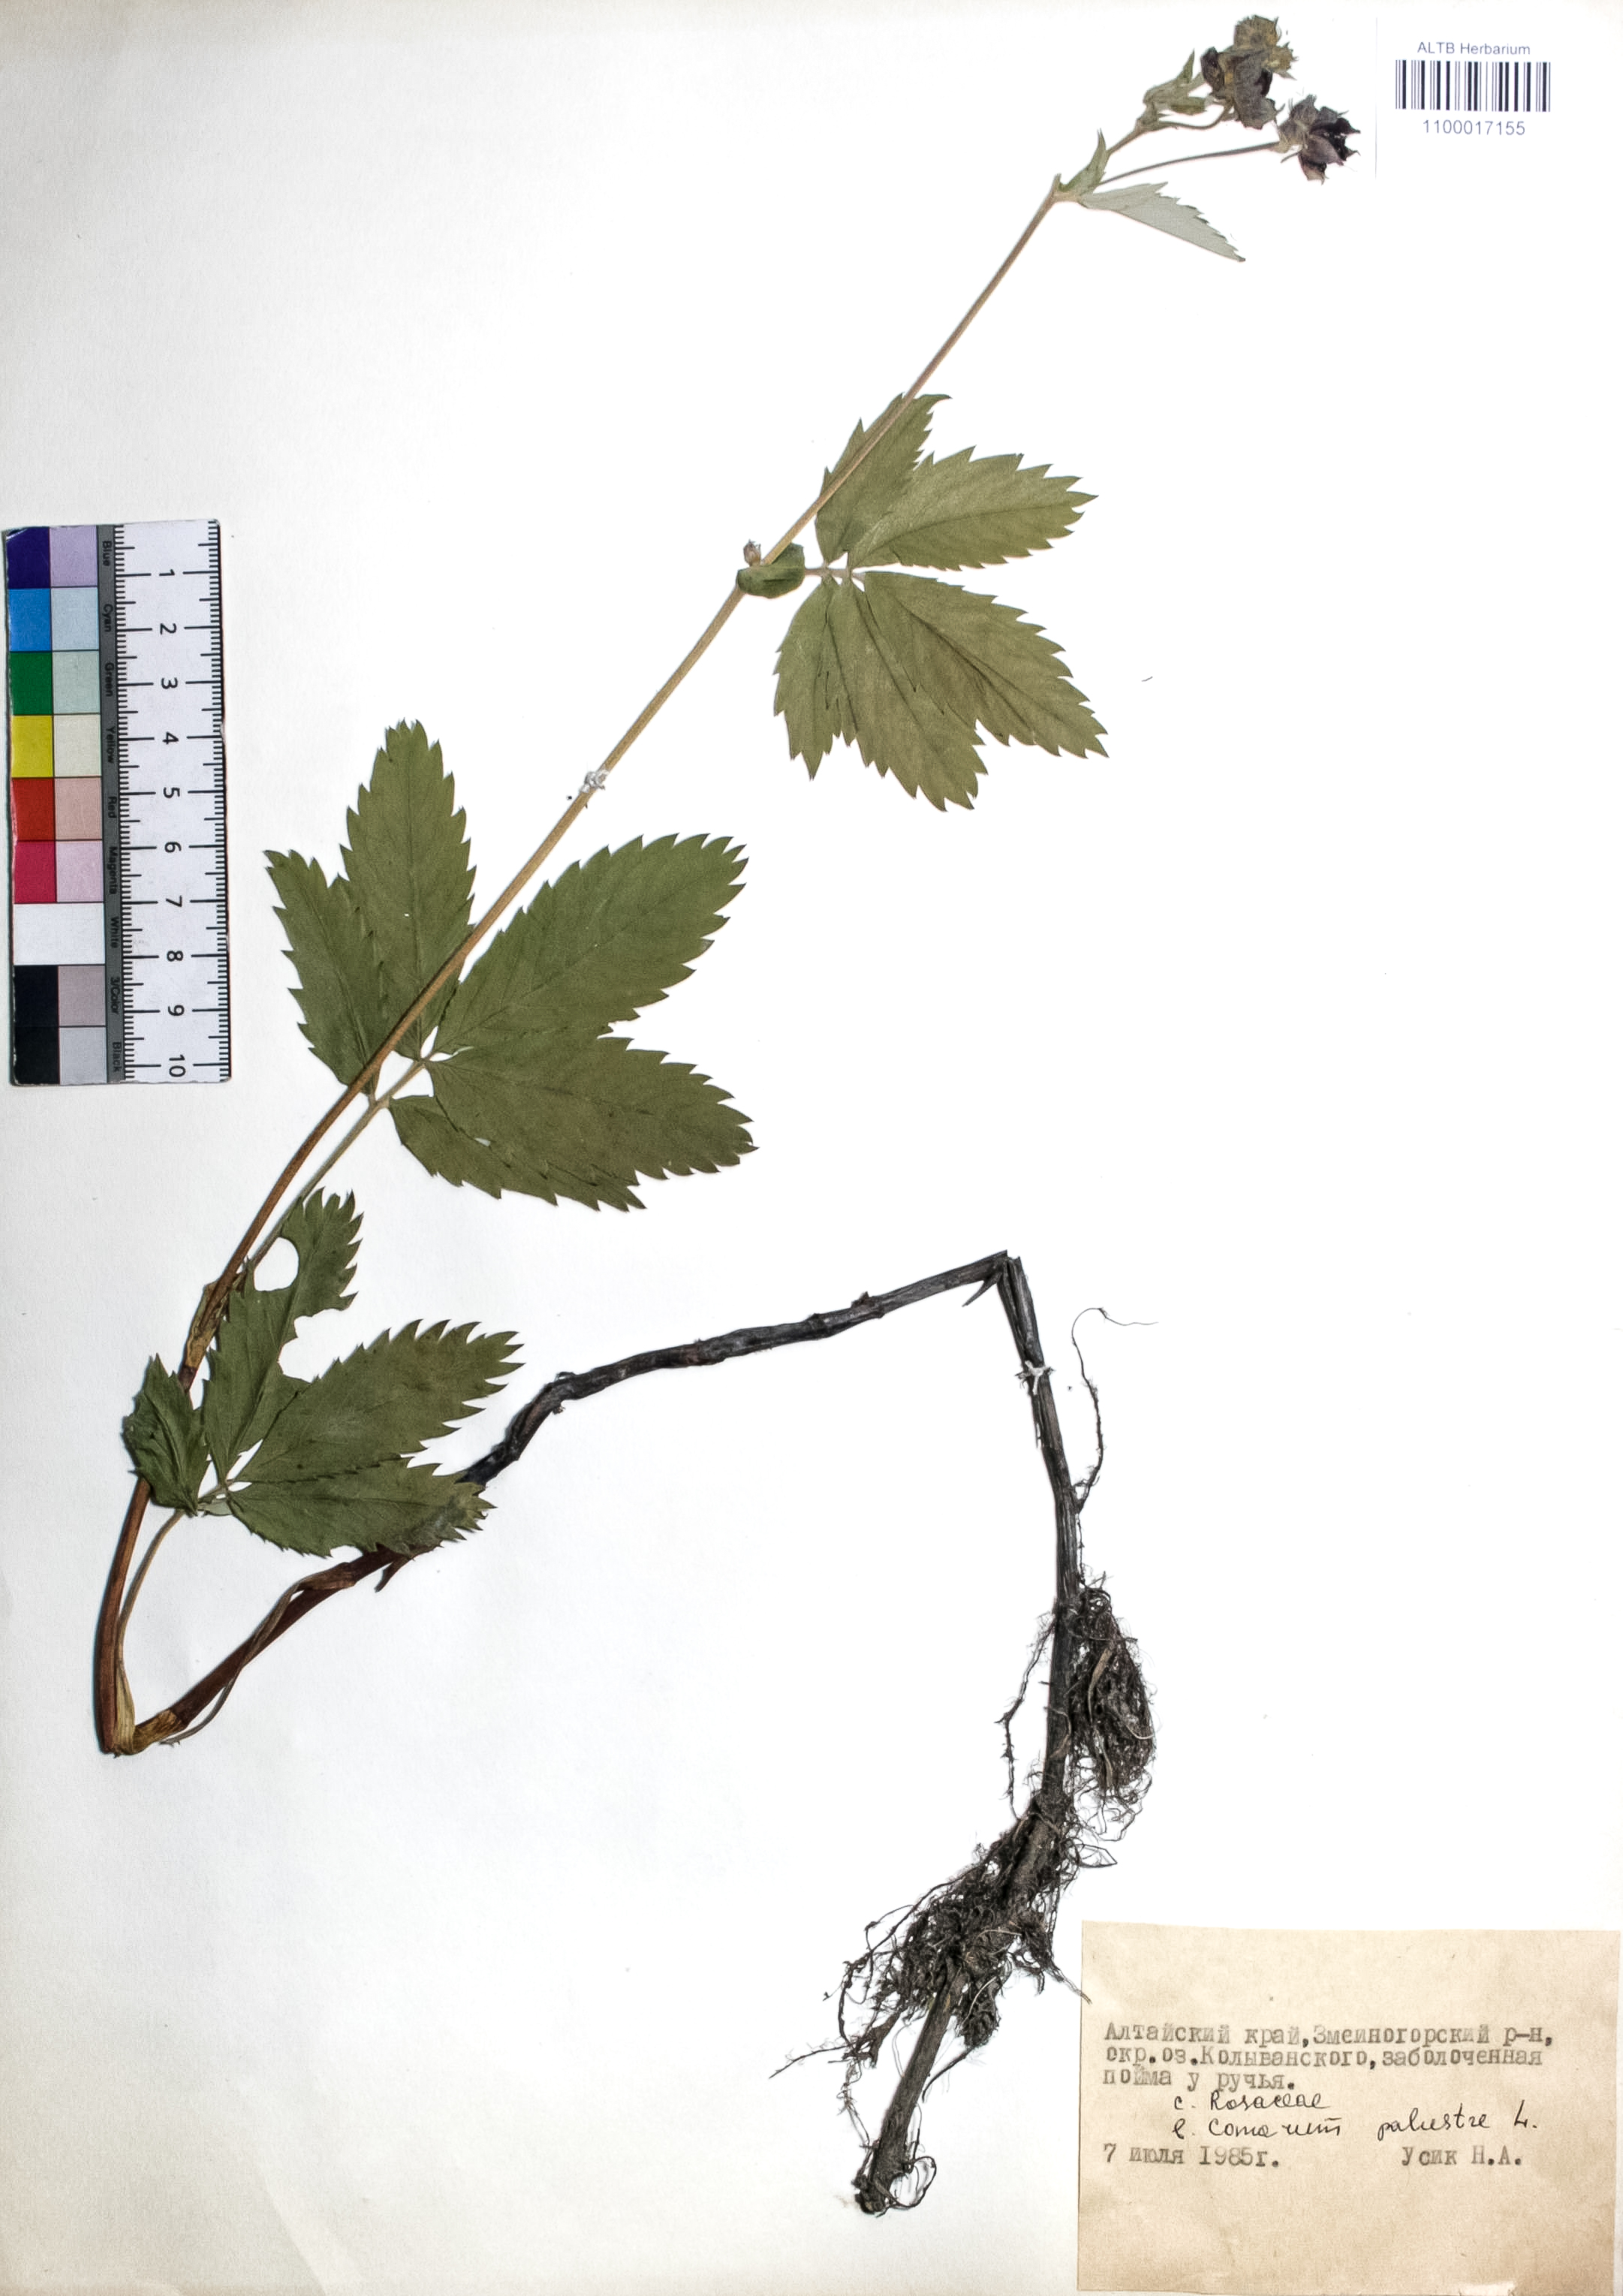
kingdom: Plantae
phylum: Tracheophyta
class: Magnoliopsida
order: Rosales
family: Rosaceae
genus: Comarum
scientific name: Comarum palustre
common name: Marsh cinquefoil
